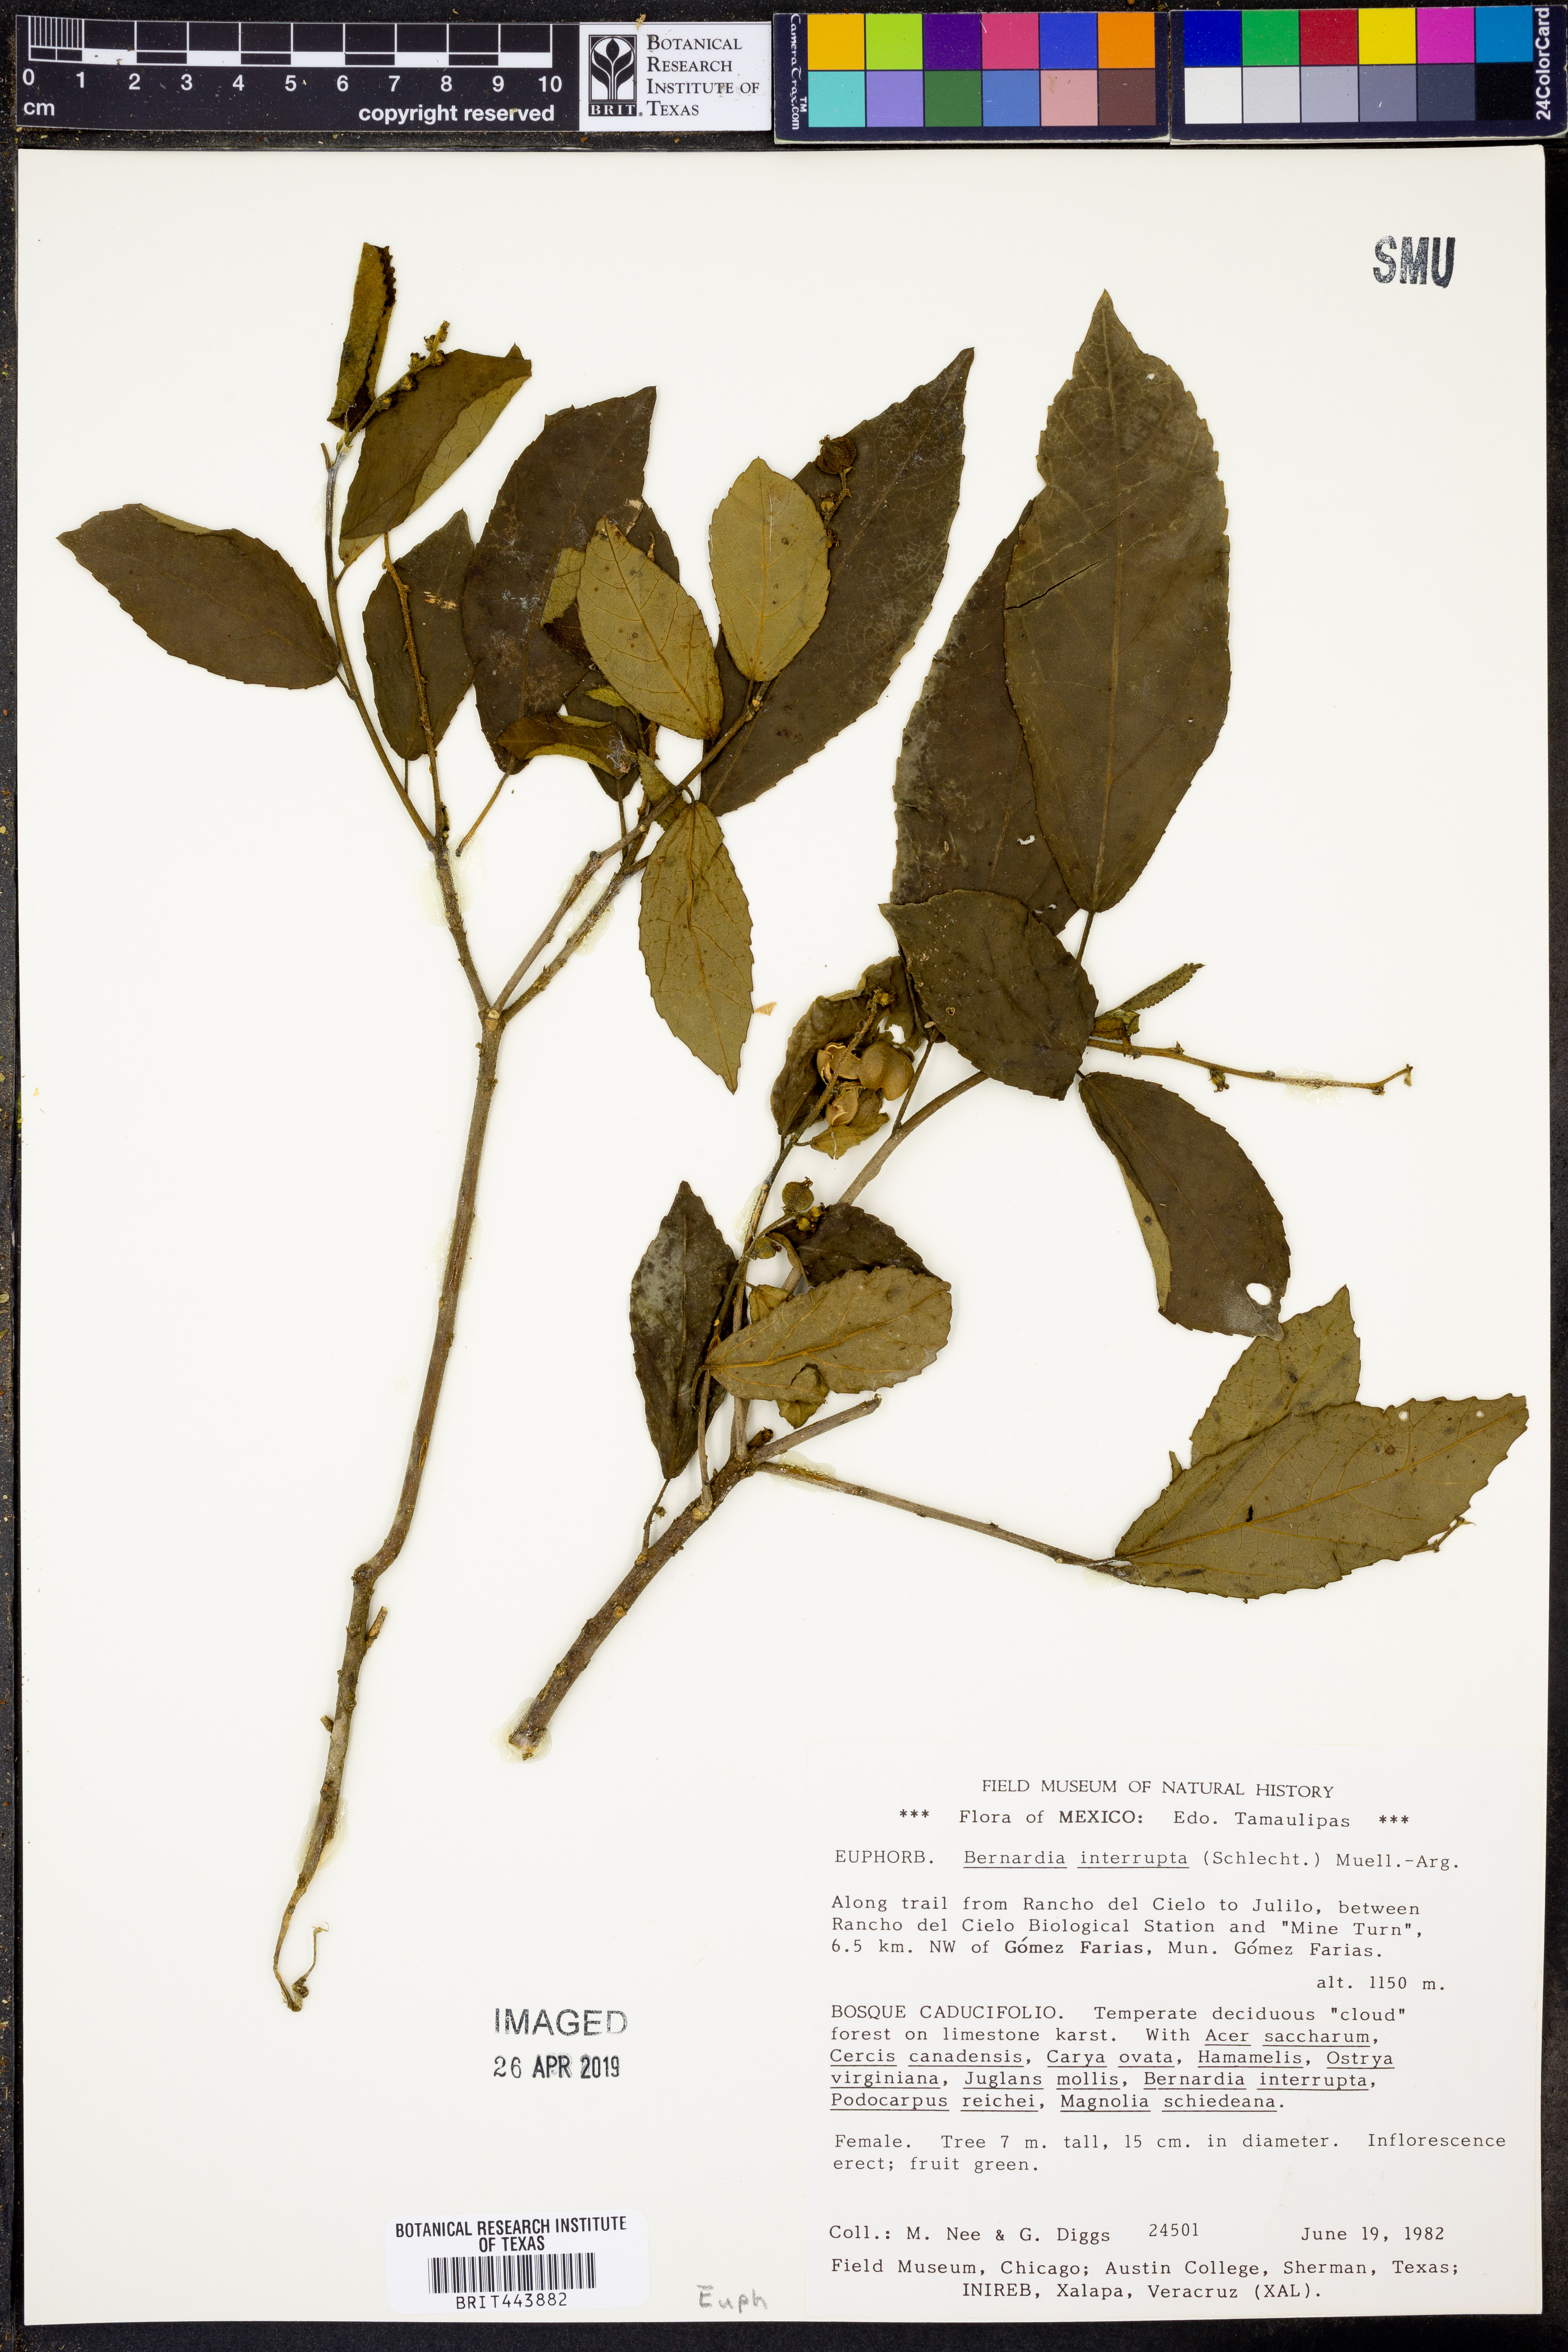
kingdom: Plantae
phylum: Tracheophyta
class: Magnoliopsida
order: Malpighiales
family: Euphorbiaceae
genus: Bernardia
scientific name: Bernardia dodecandra
